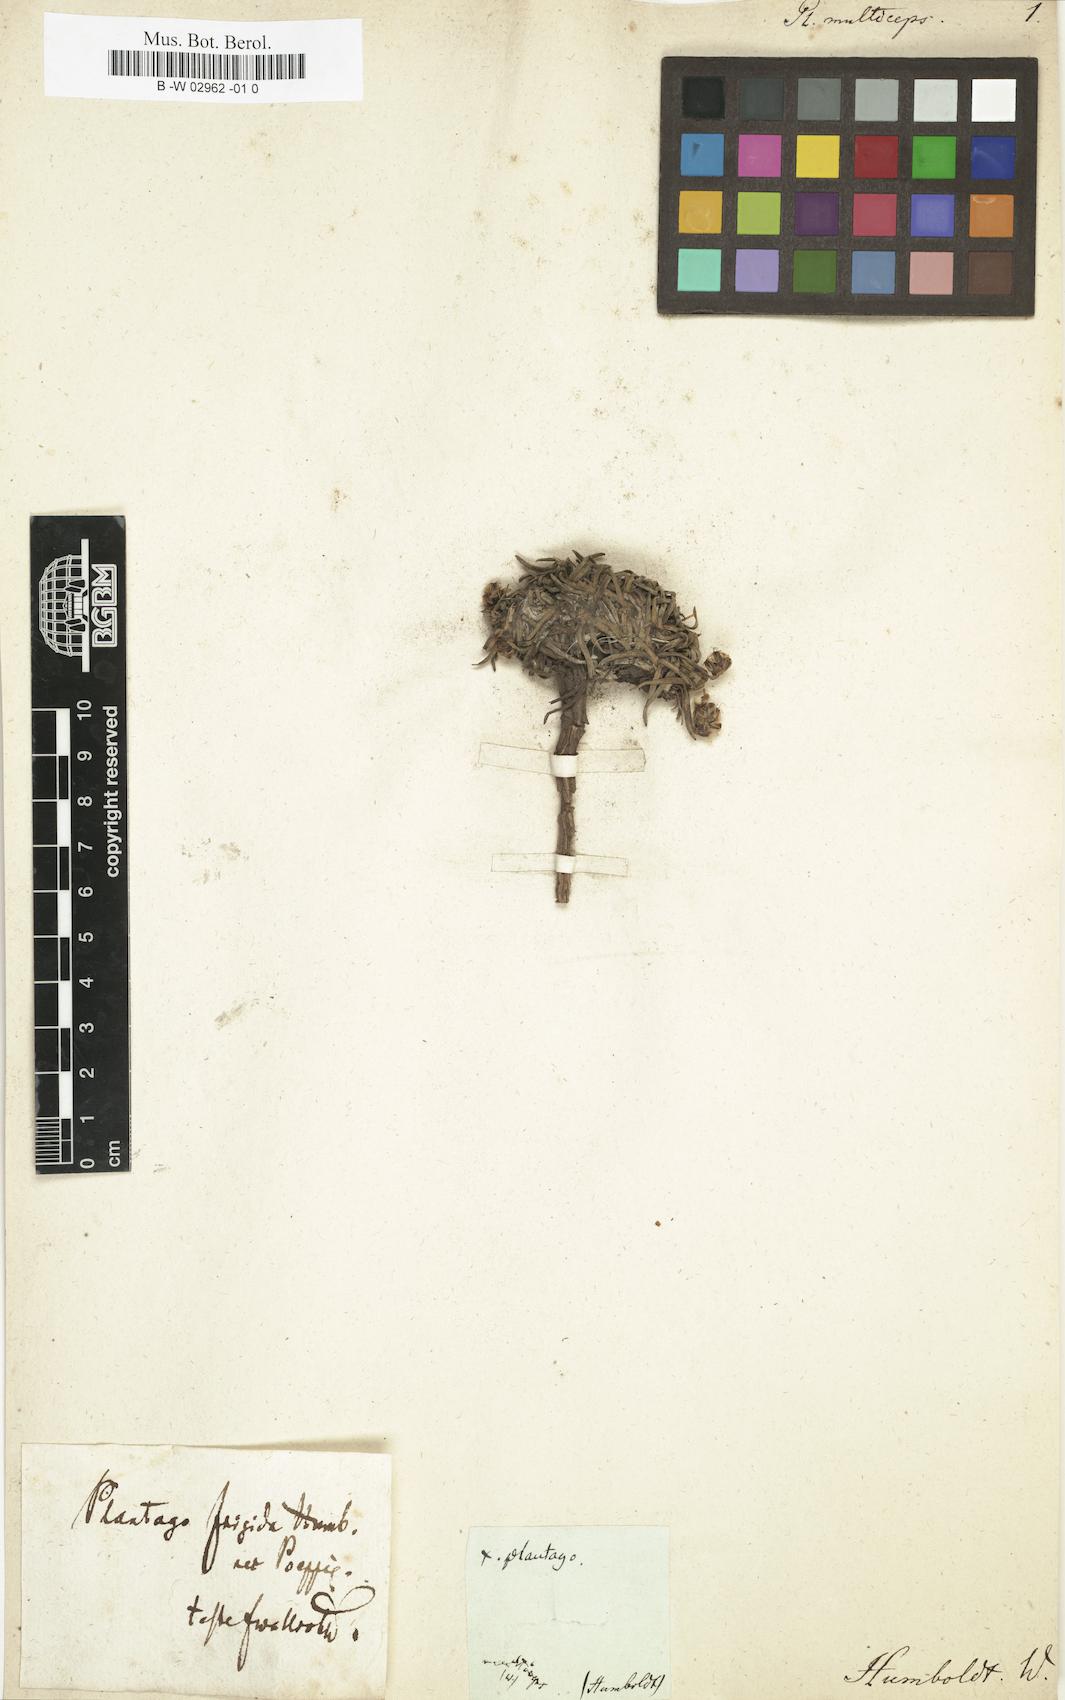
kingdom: Plantae
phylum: Tracheophyta
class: Magnoliopsida
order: Lamiales
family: Plantaginaceae
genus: Plantago
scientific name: Plantago sericea
